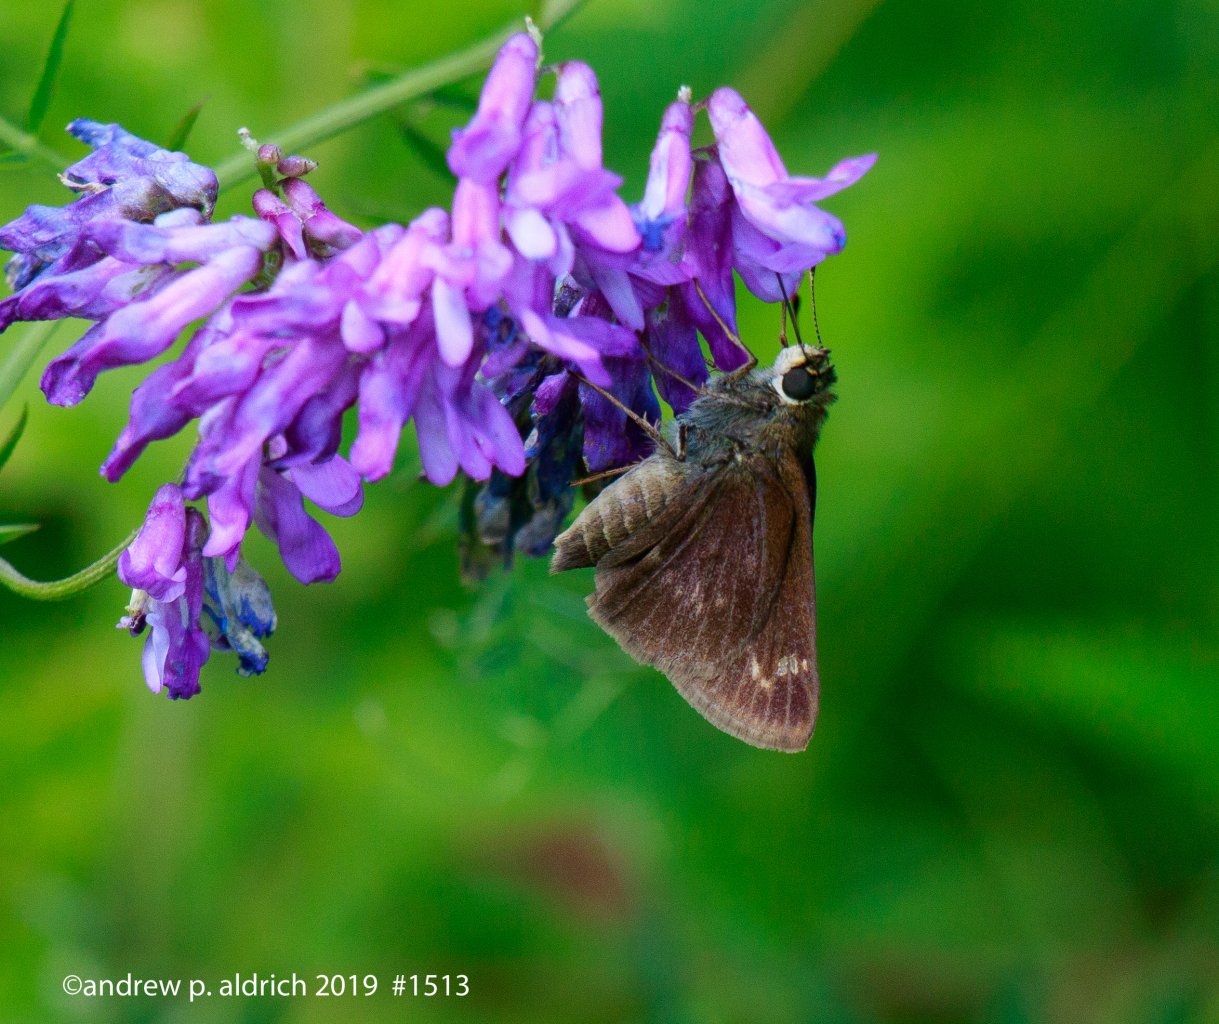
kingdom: Animalia
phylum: Arthropoda
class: Insecta
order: Lepidoptera
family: Hesperiidae
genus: Vernia
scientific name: Vernia verna
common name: Little Glassywing
